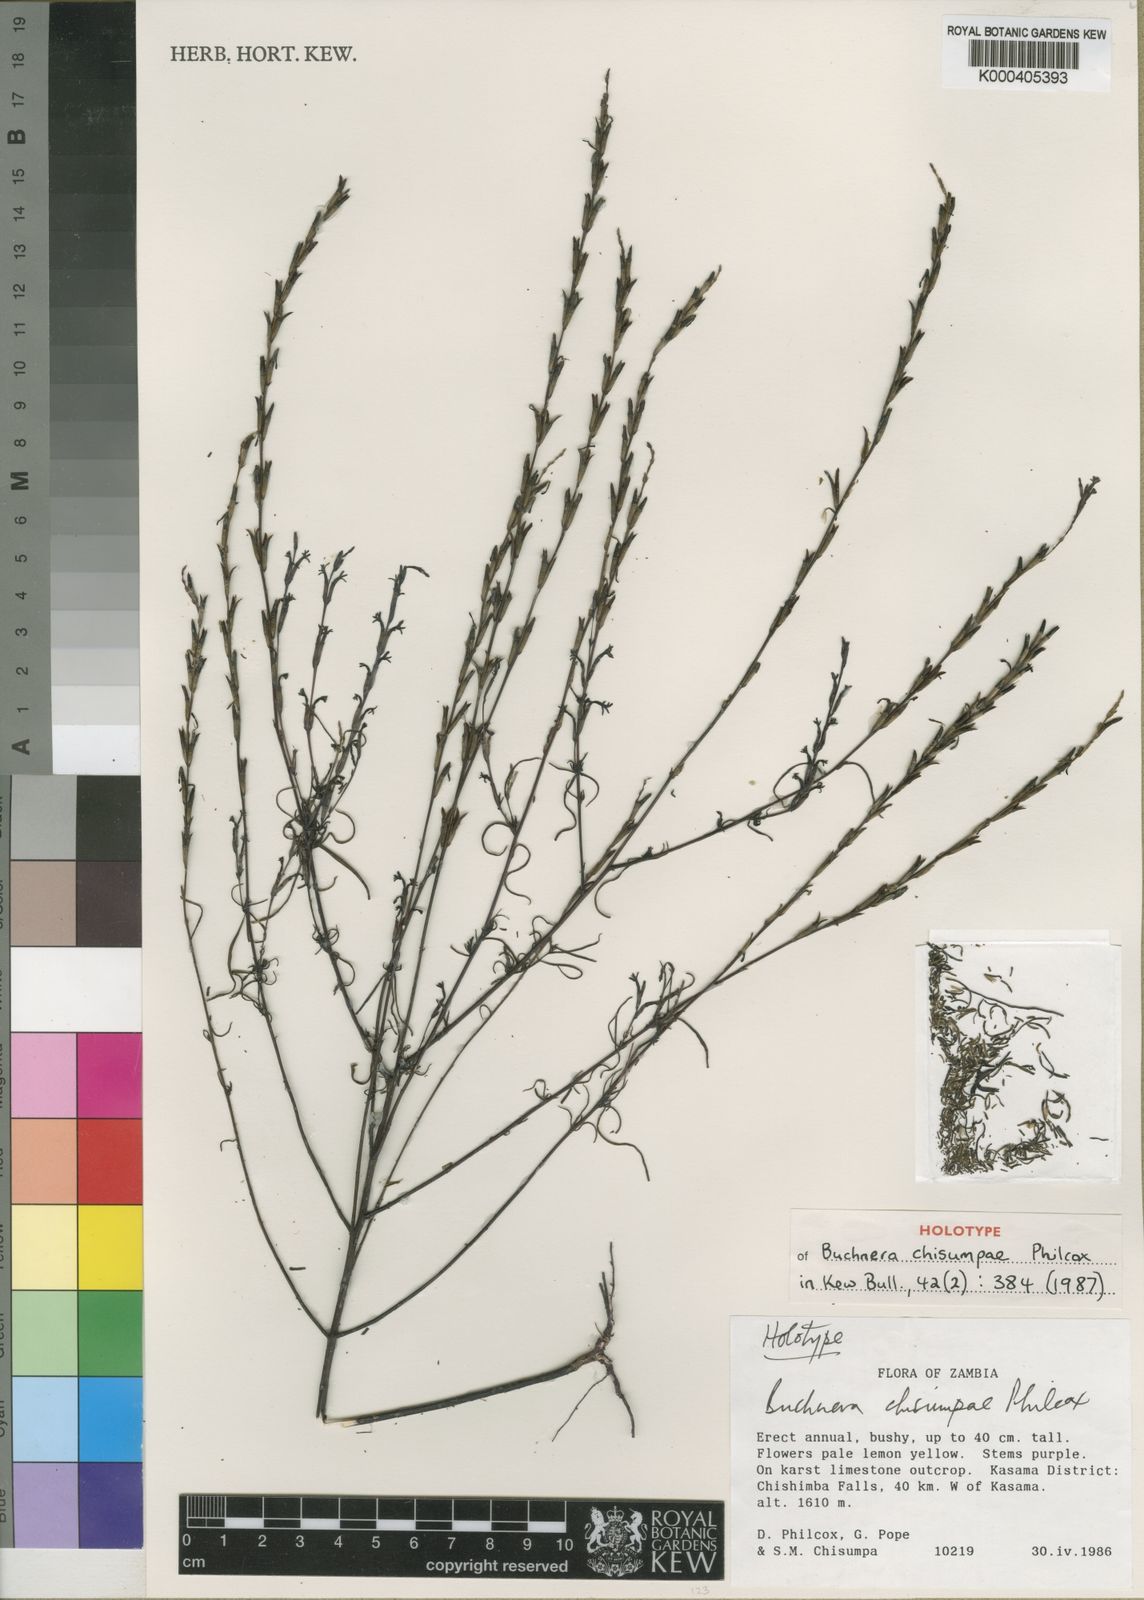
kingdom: Plantae
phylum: Tracheophyta
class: Magnoliopsida
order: Lamiales
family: Orobanchaceae
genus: Buchnera
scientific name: Buchnera chisumpae
